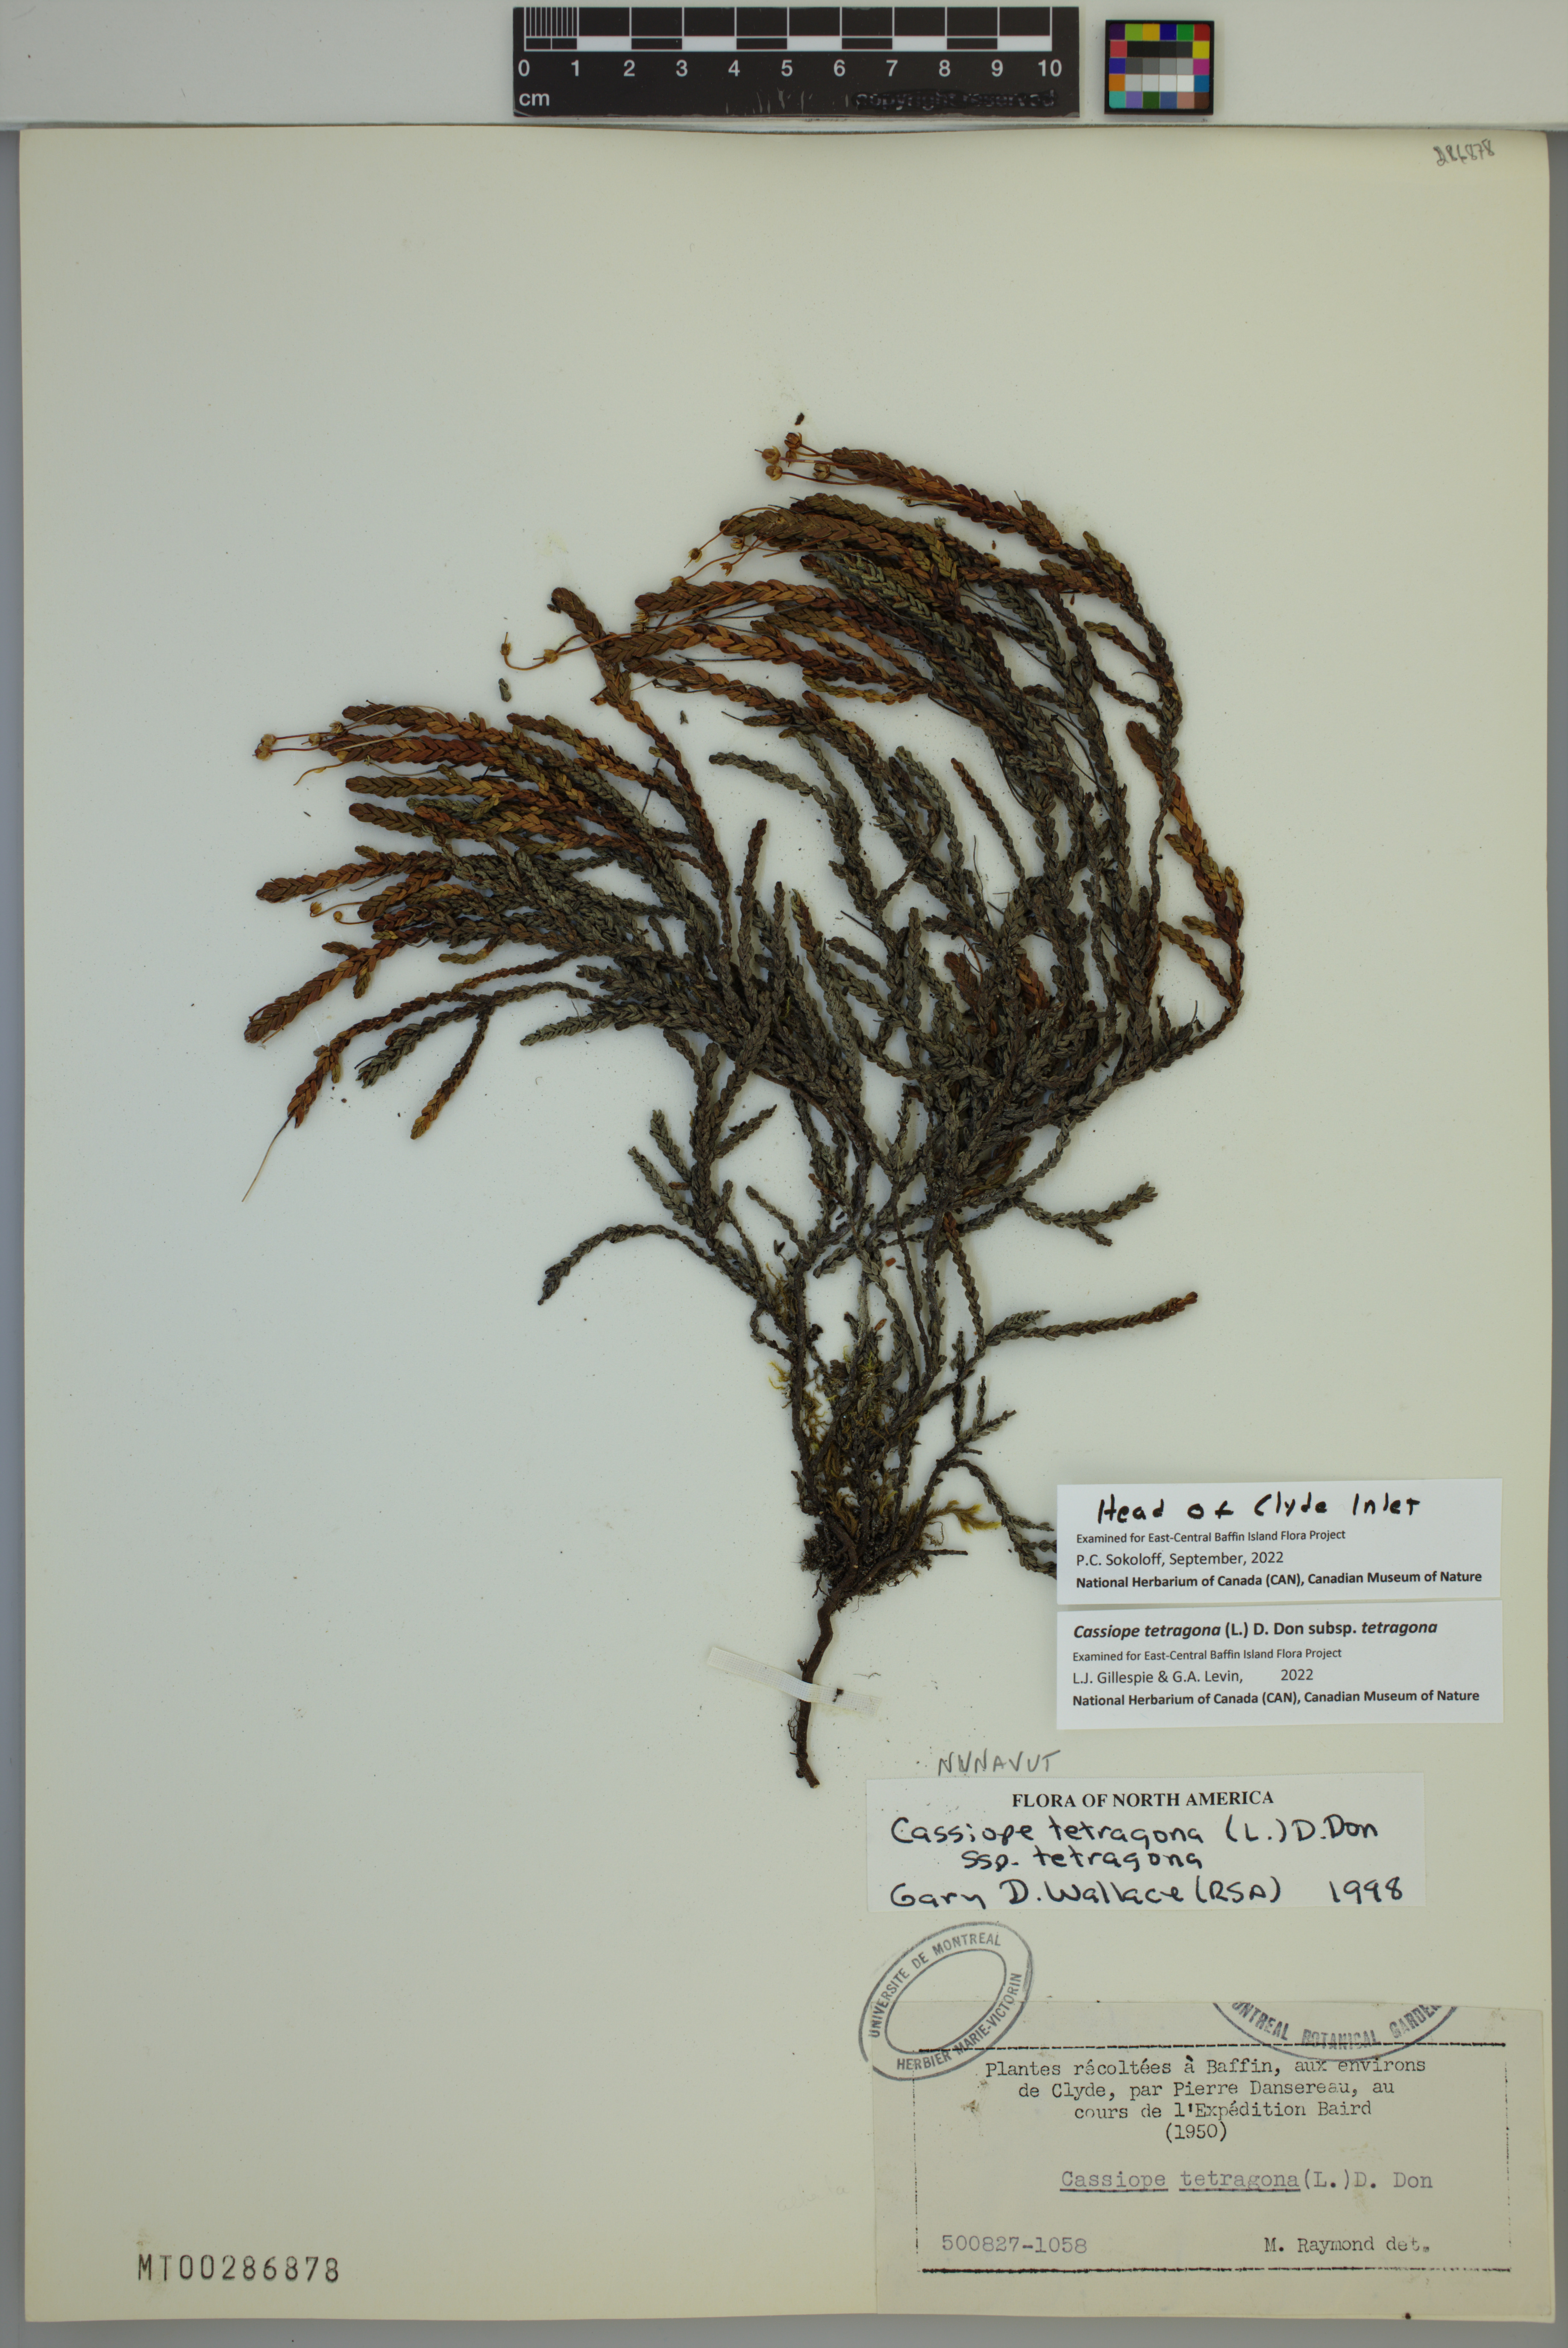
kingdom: Plantae
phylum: Tracheophyta
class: Magnoliopsida
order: Ericales
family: Ericaceae
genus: Cassiope
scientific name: Cassiope tetragona
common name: Arctic bell heather
